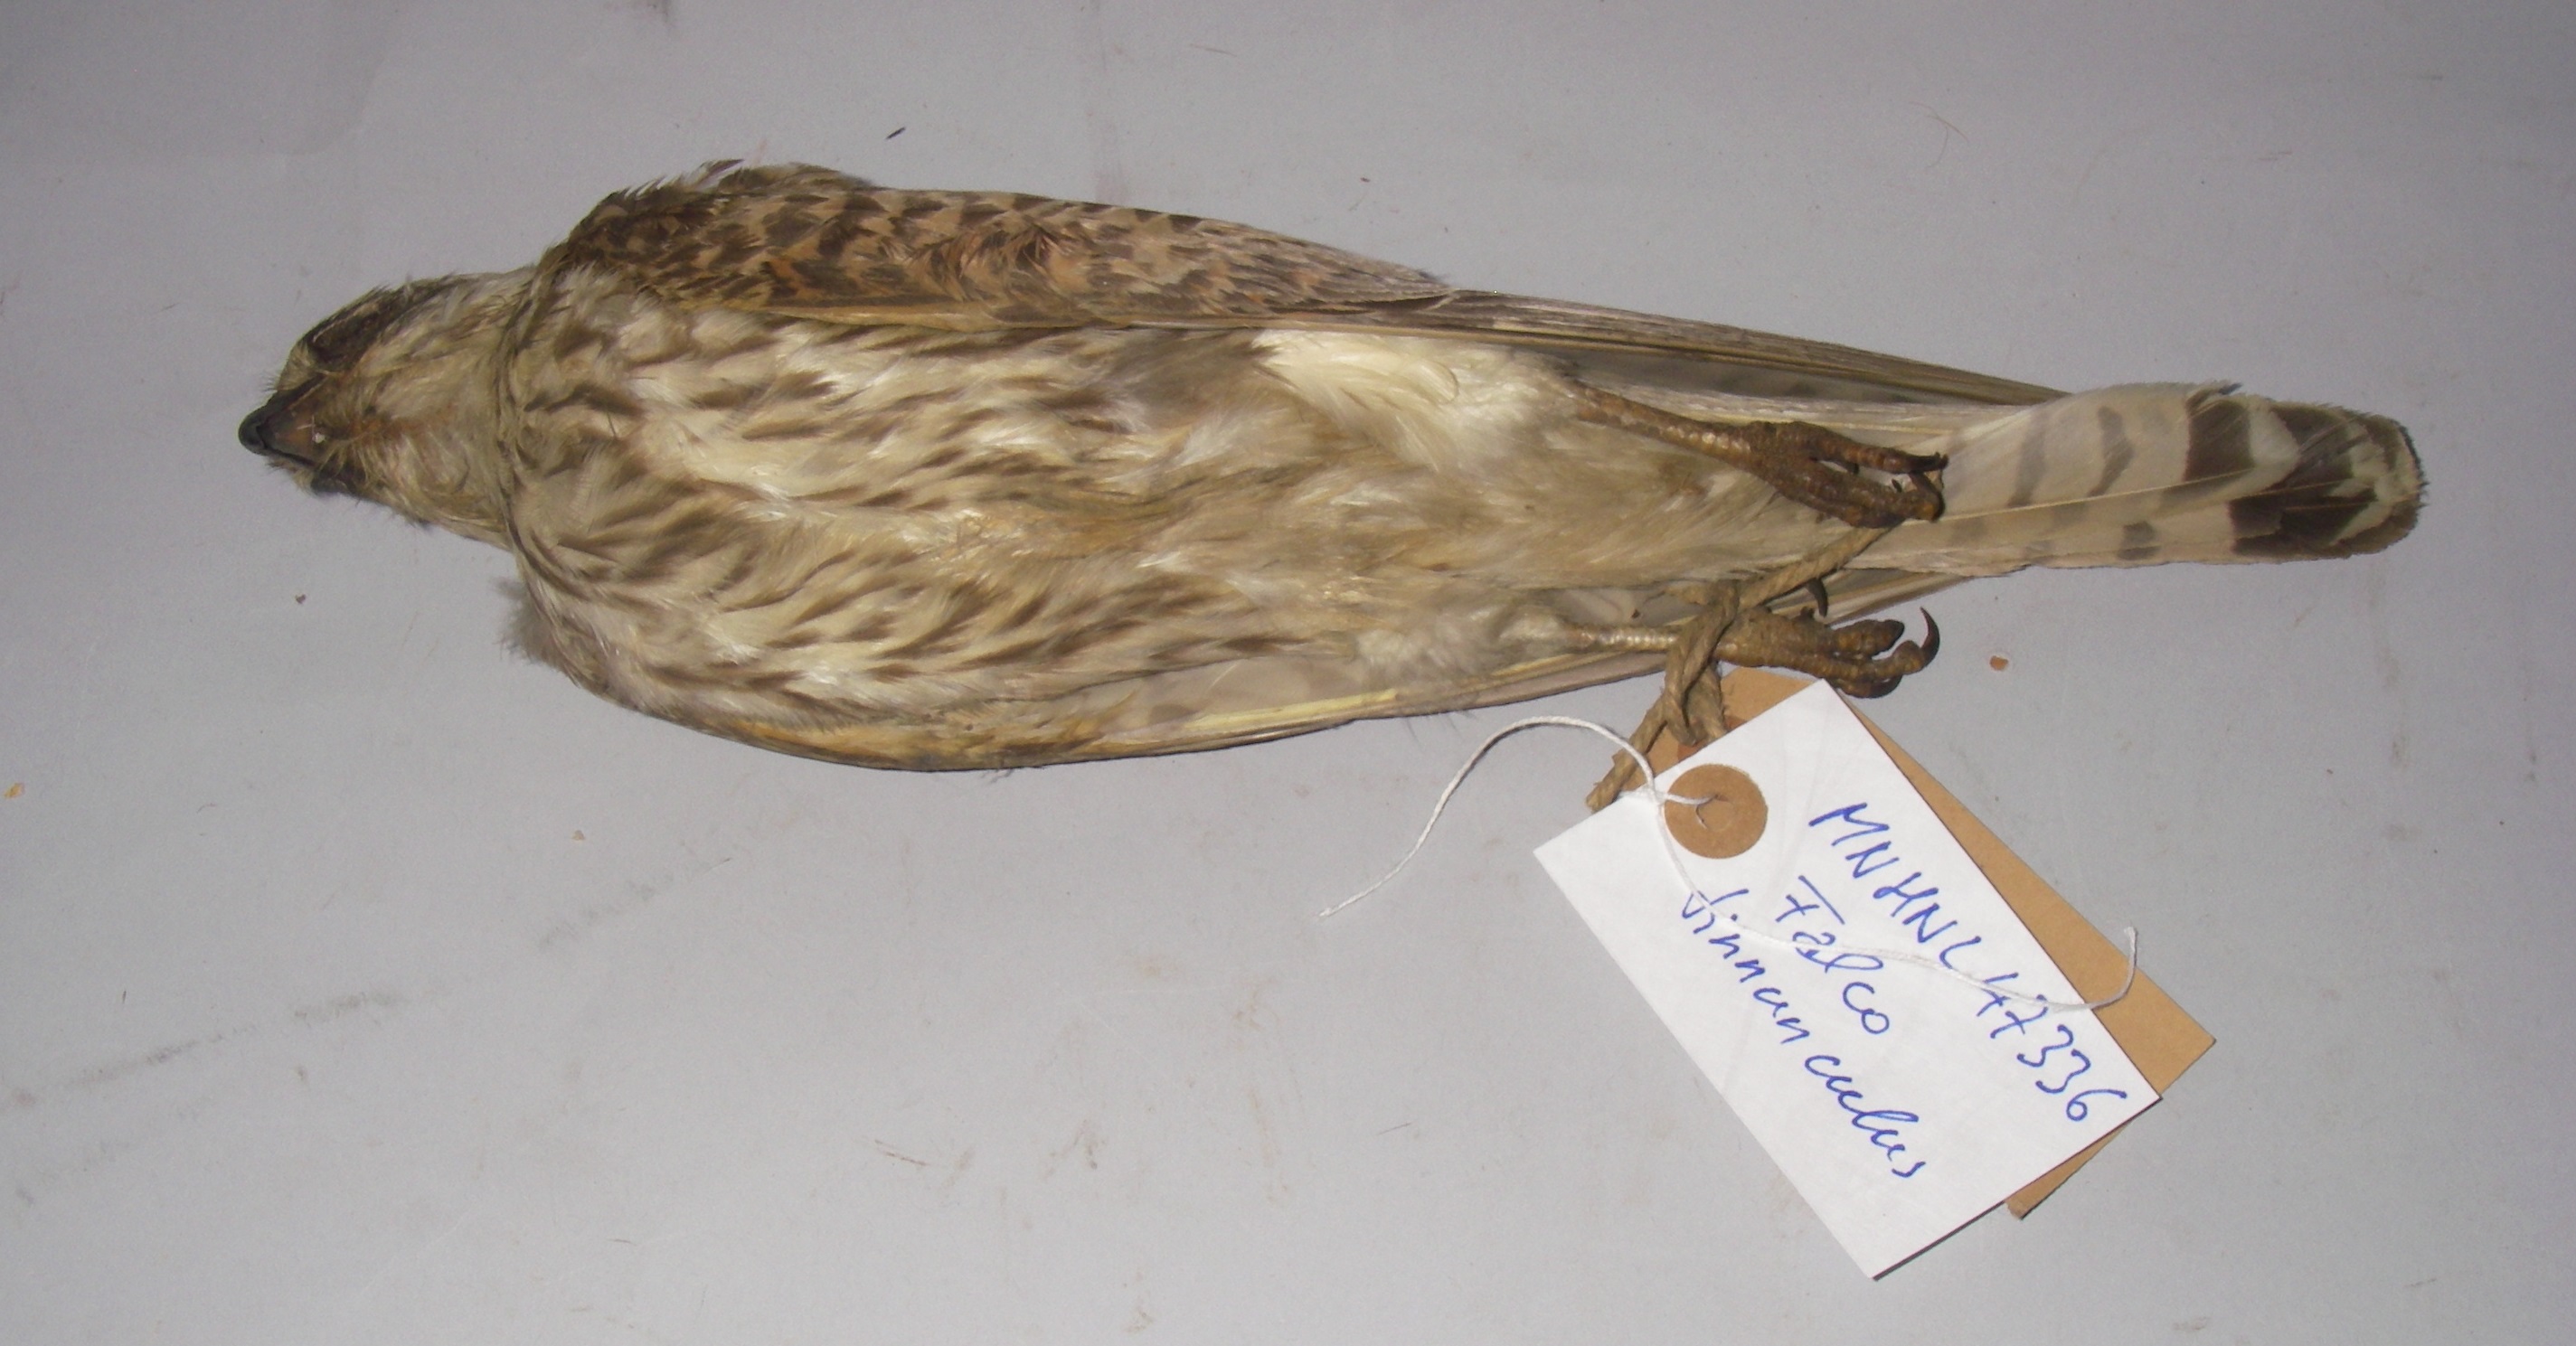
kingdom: Animalia
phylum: Chordata
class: Aves
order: Falconiformes
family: Falconidae
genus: Falco
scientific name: Falco tinnunculus
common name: Common kestrel
